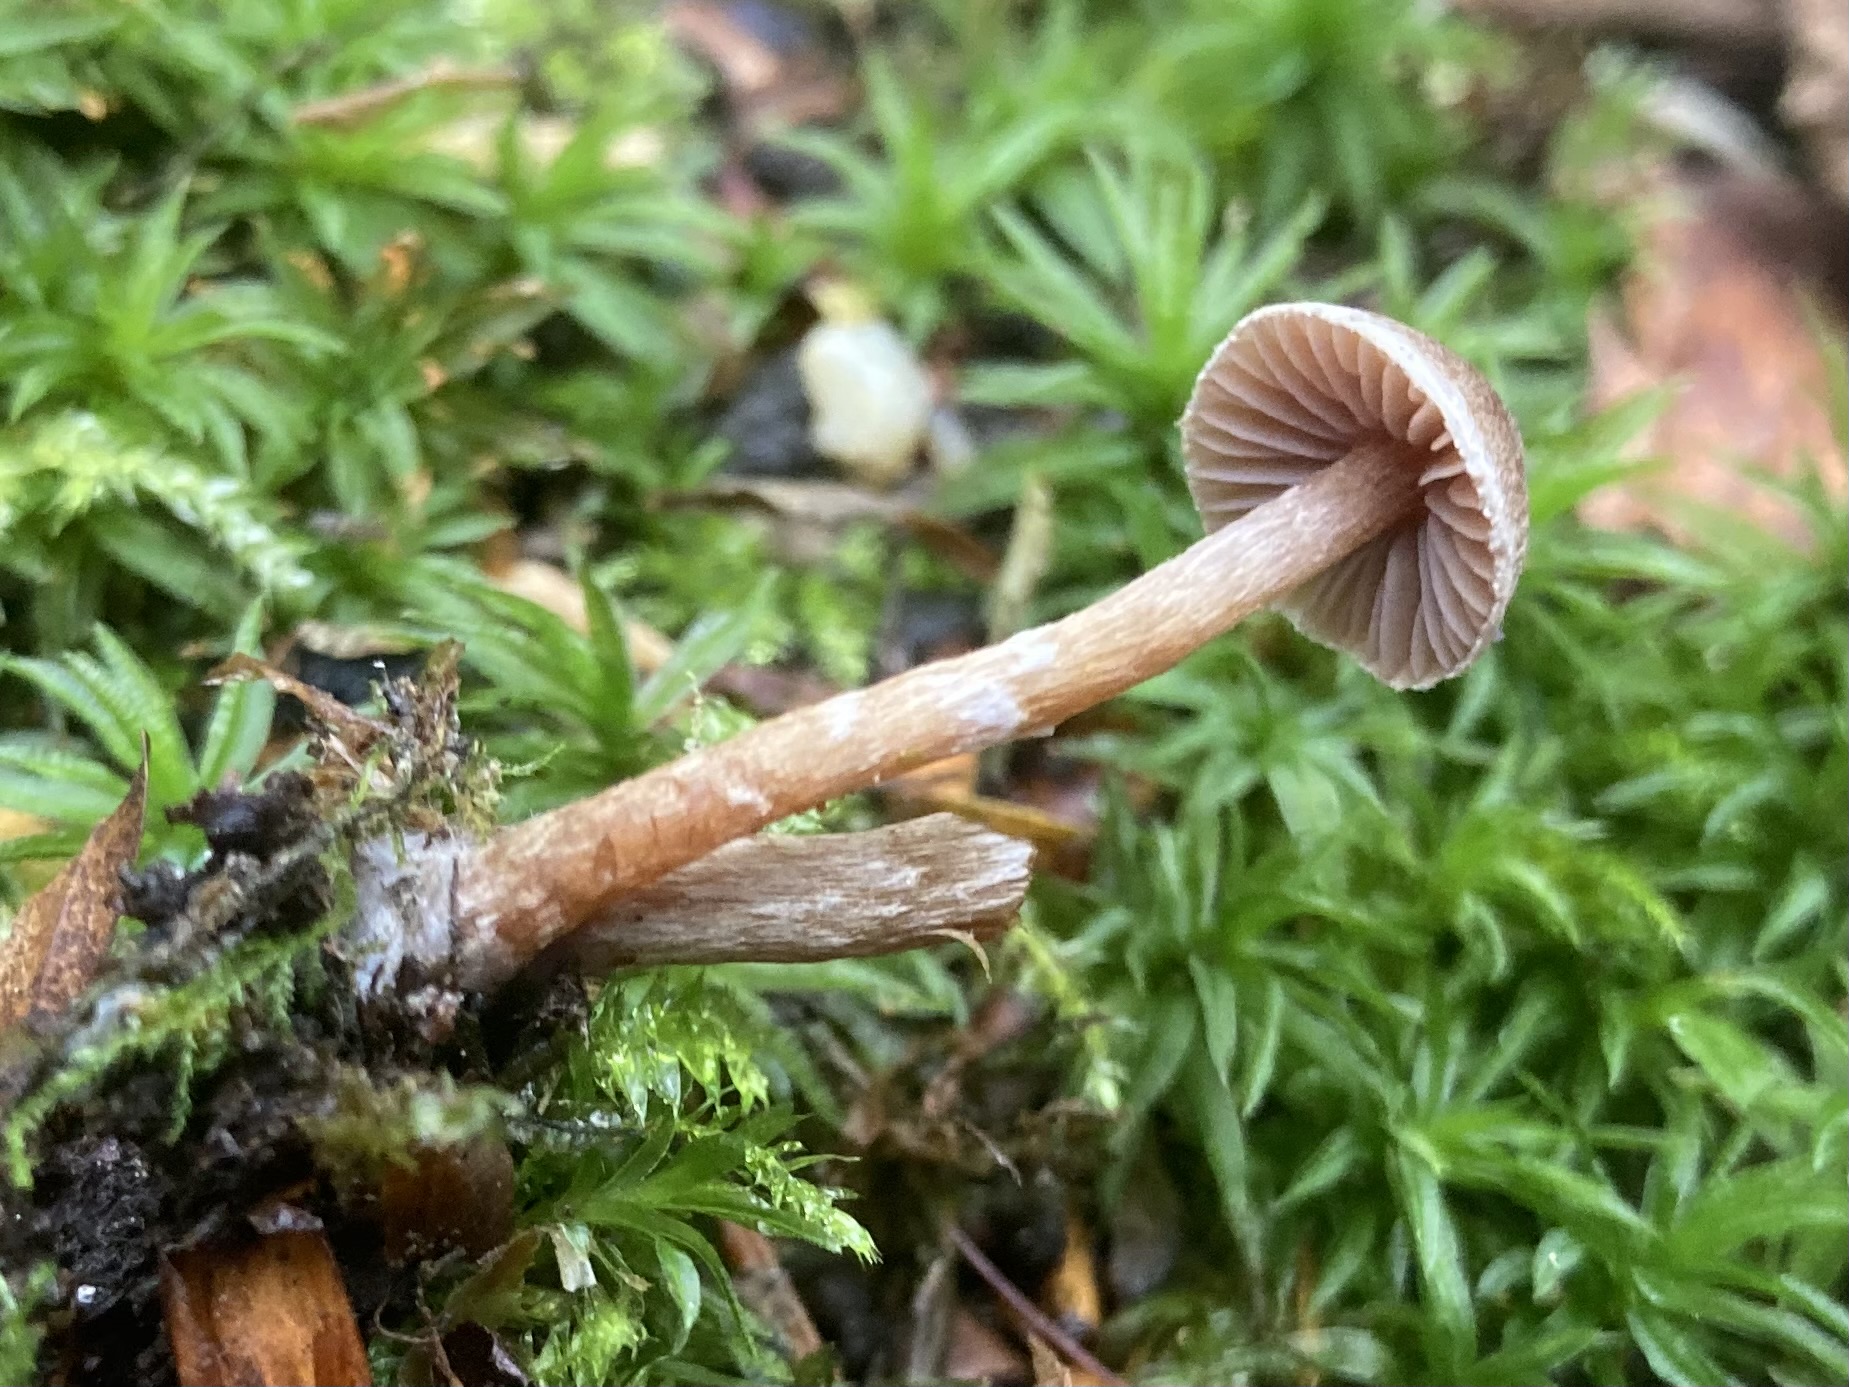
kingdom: Fungi
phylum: Basidiomycota
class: Agaricomycetes
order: Agaricales
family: Cortinariaceae
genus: Cortinarius
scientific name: Cortinarius
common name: pelargonie-slørhat
